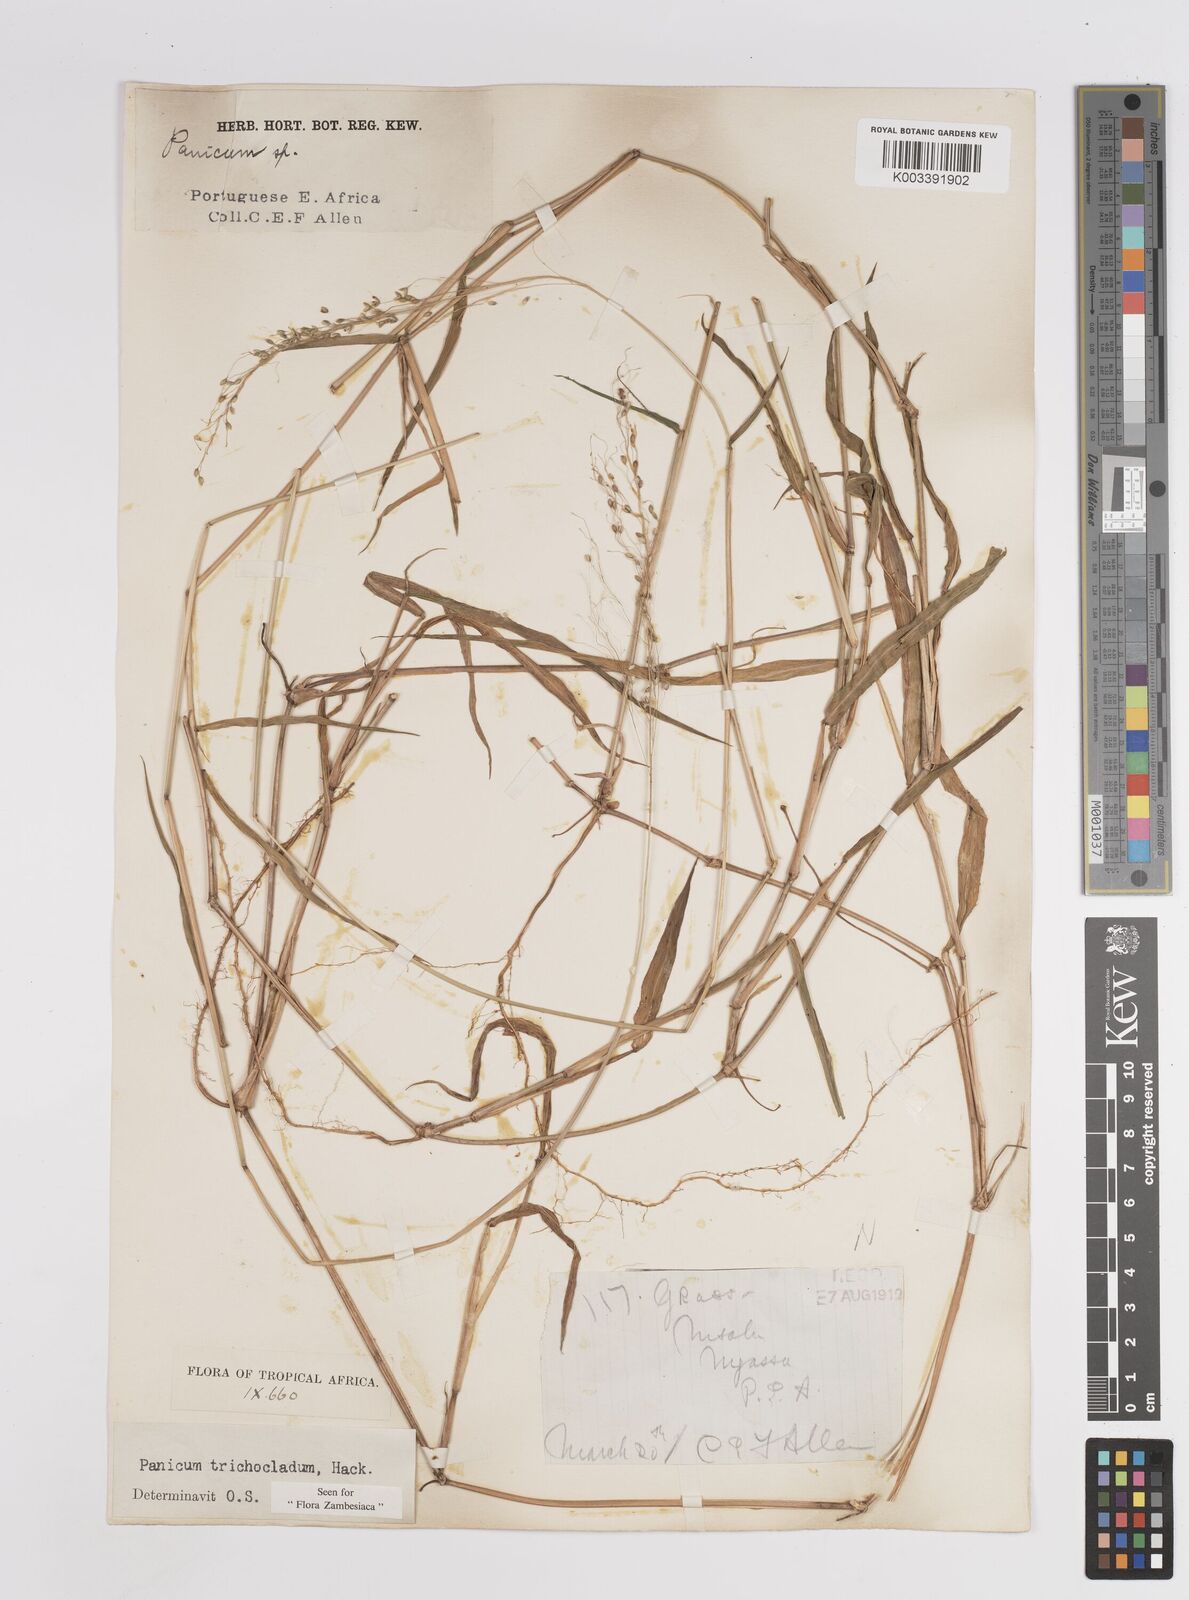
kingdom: Plantae
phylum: Tracheophyta
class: Liliopsida
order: Poales
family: Poaceae
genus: Panicum
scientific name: Panicum trichocladum
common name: Donkey grass
